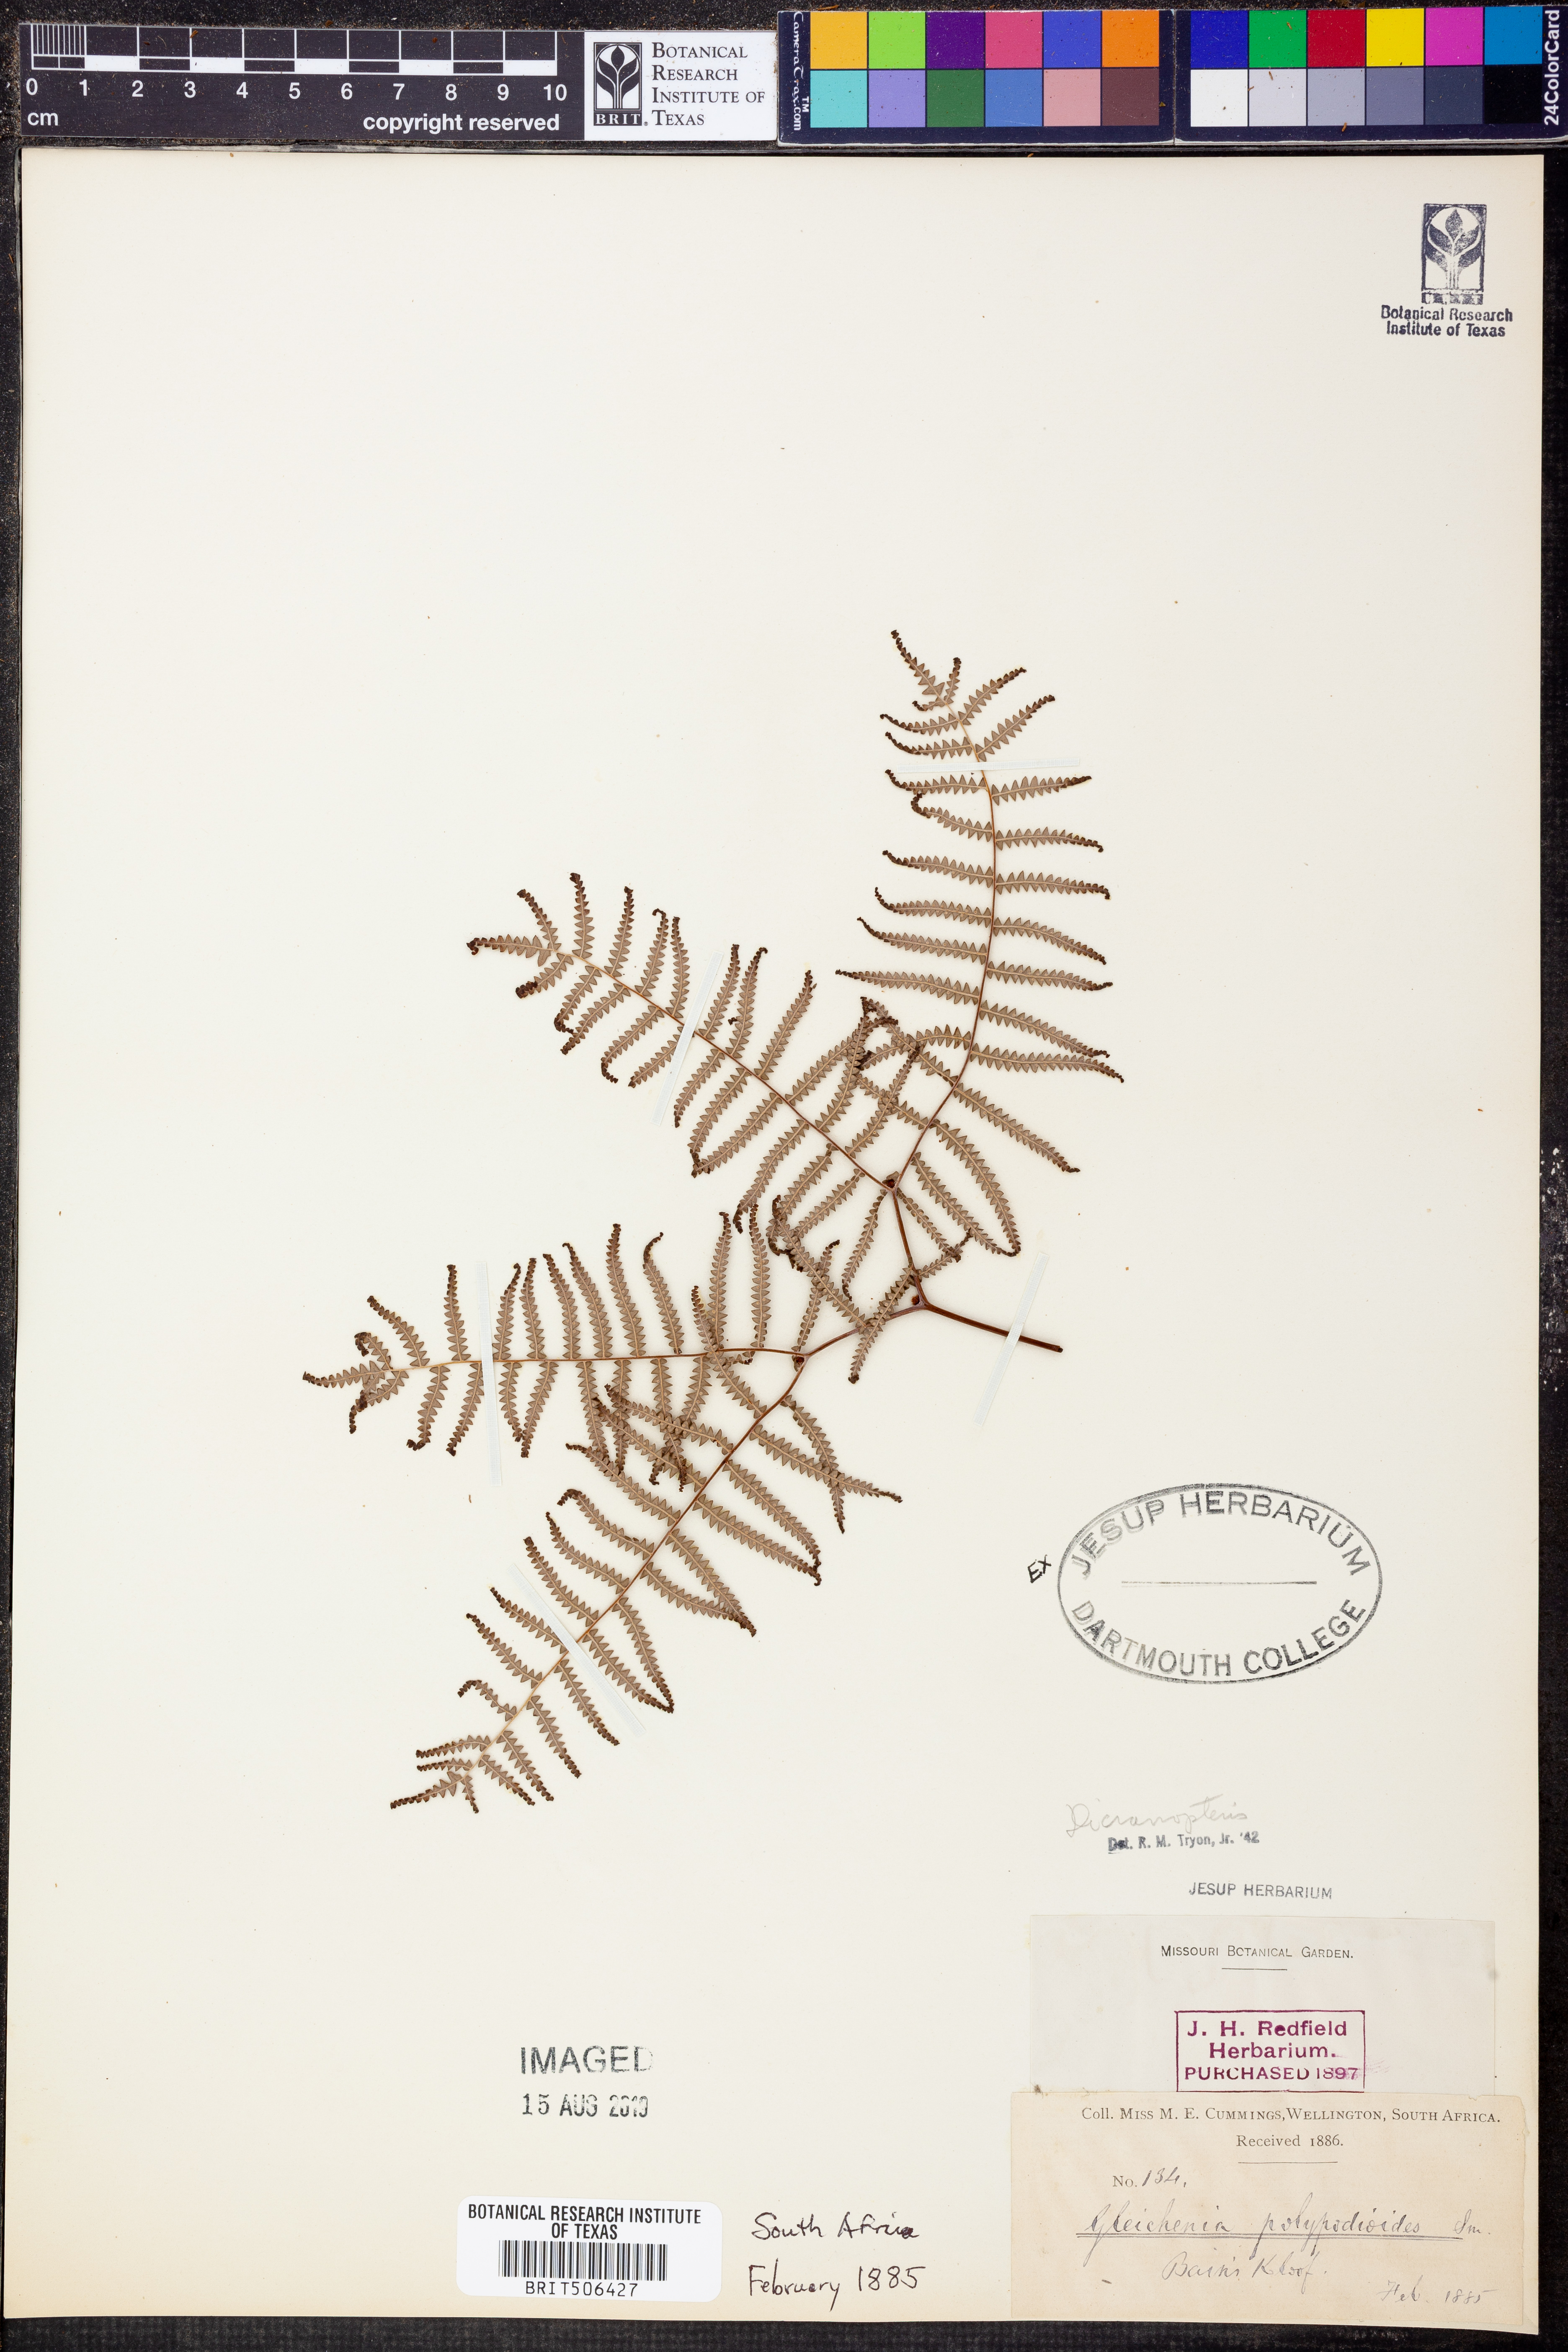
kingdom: Plantae
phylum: Tracheophyta
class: Polypodiopsida
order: Gleicheniales
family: Gleicheniaceae
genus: Dicranopteris
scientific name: Dicranopteris
